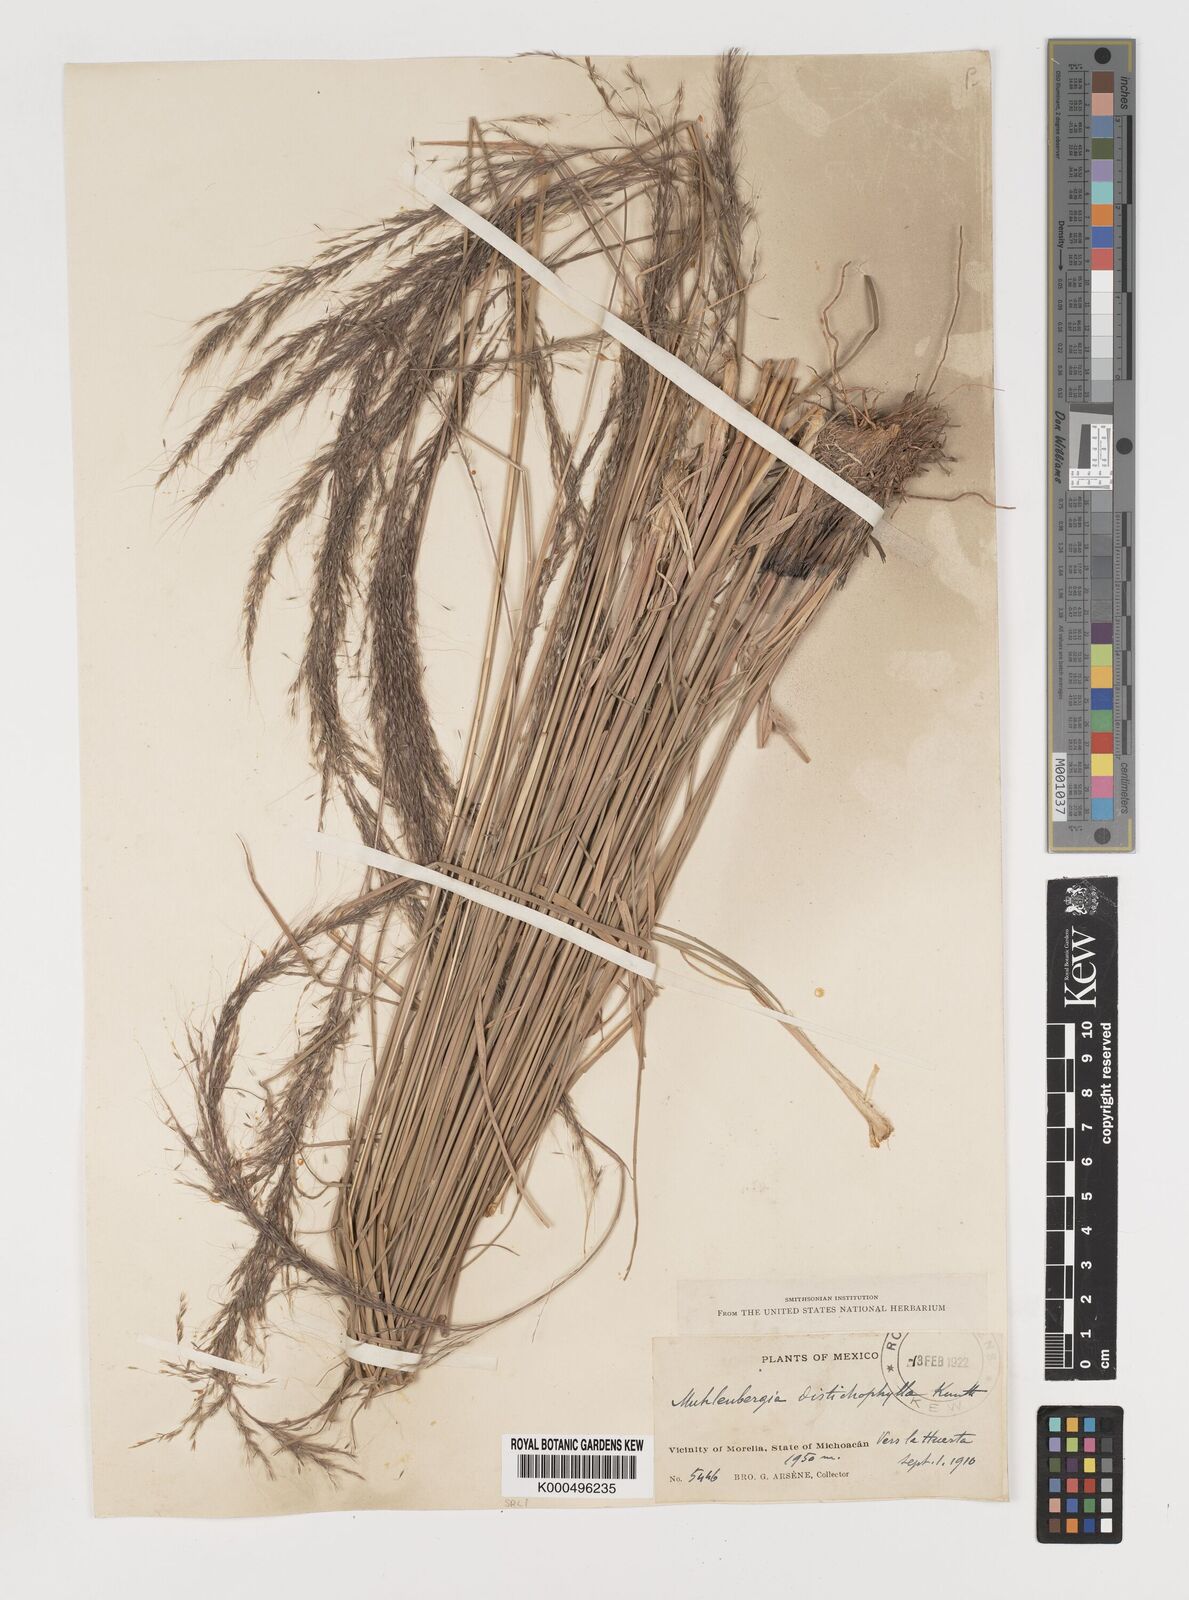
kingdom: Plantae
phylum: Tracheophyta
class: Liliopsida
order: Poales
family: Poaceae
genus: Muhlenbergia
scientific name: Muhlenbergia
